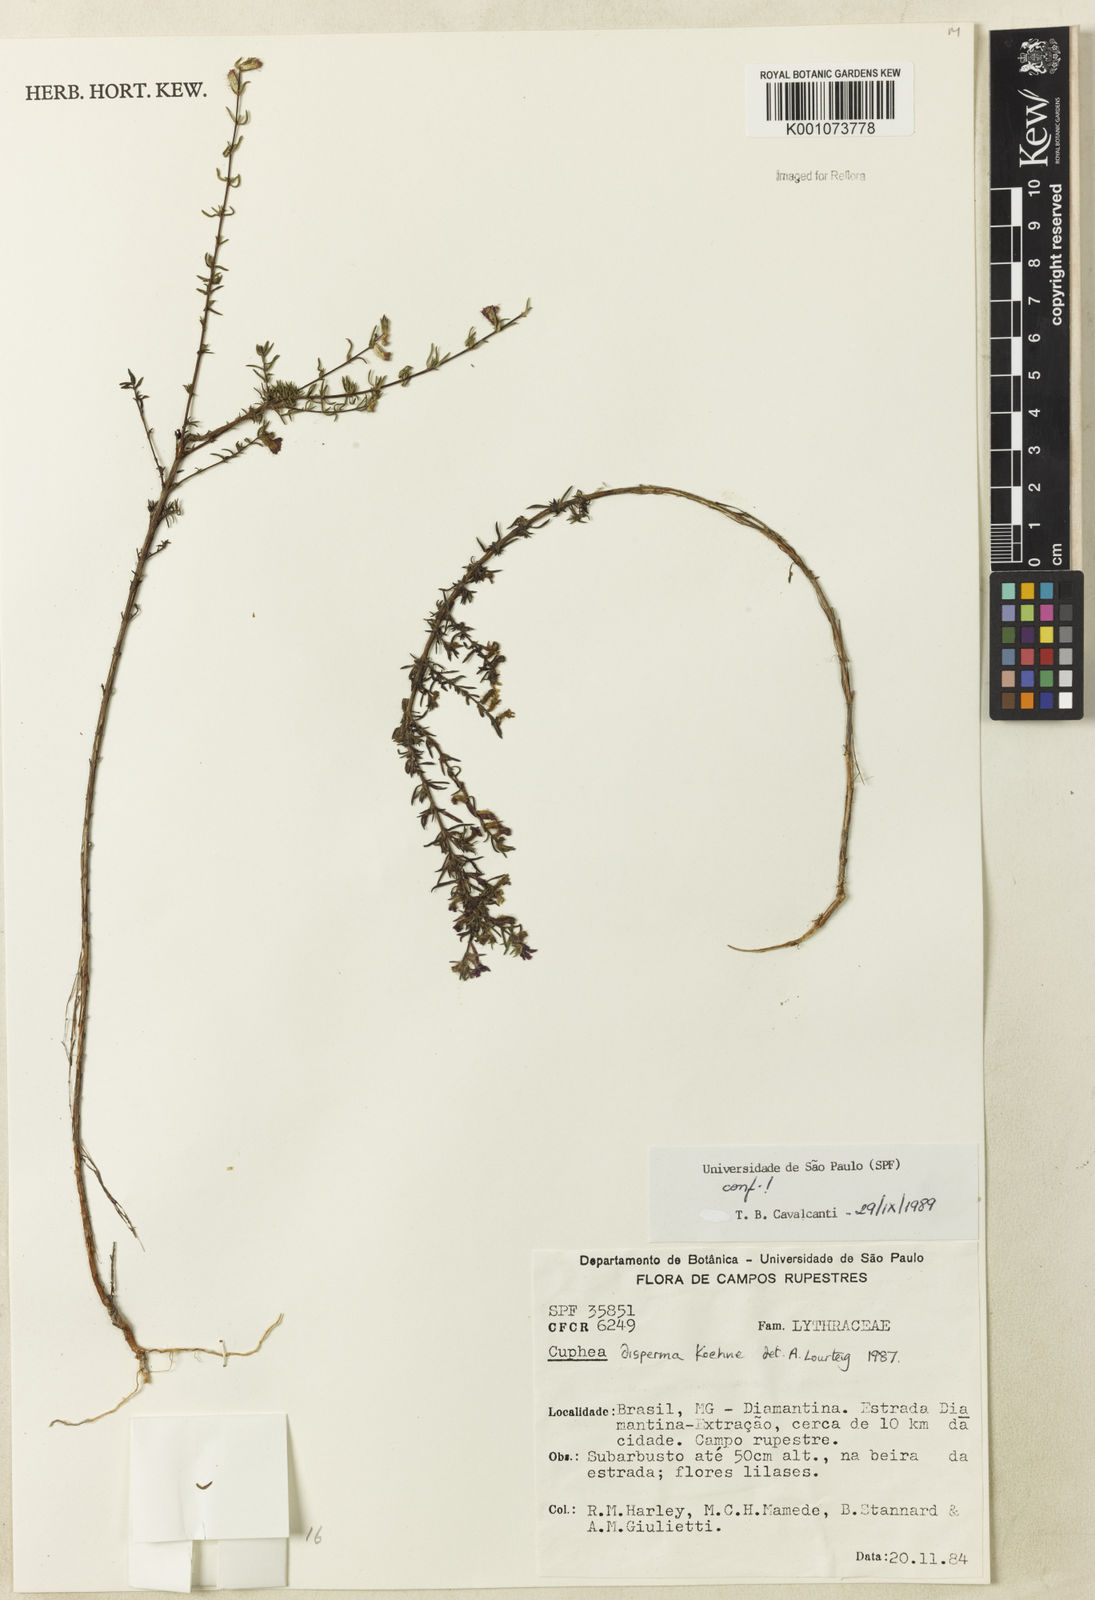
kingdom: Plantae
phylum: Tracheophyta
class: Magnoliopsida
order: Myrtales
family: Lythraceae
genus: Cuphea
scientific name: Cuphea disperma
